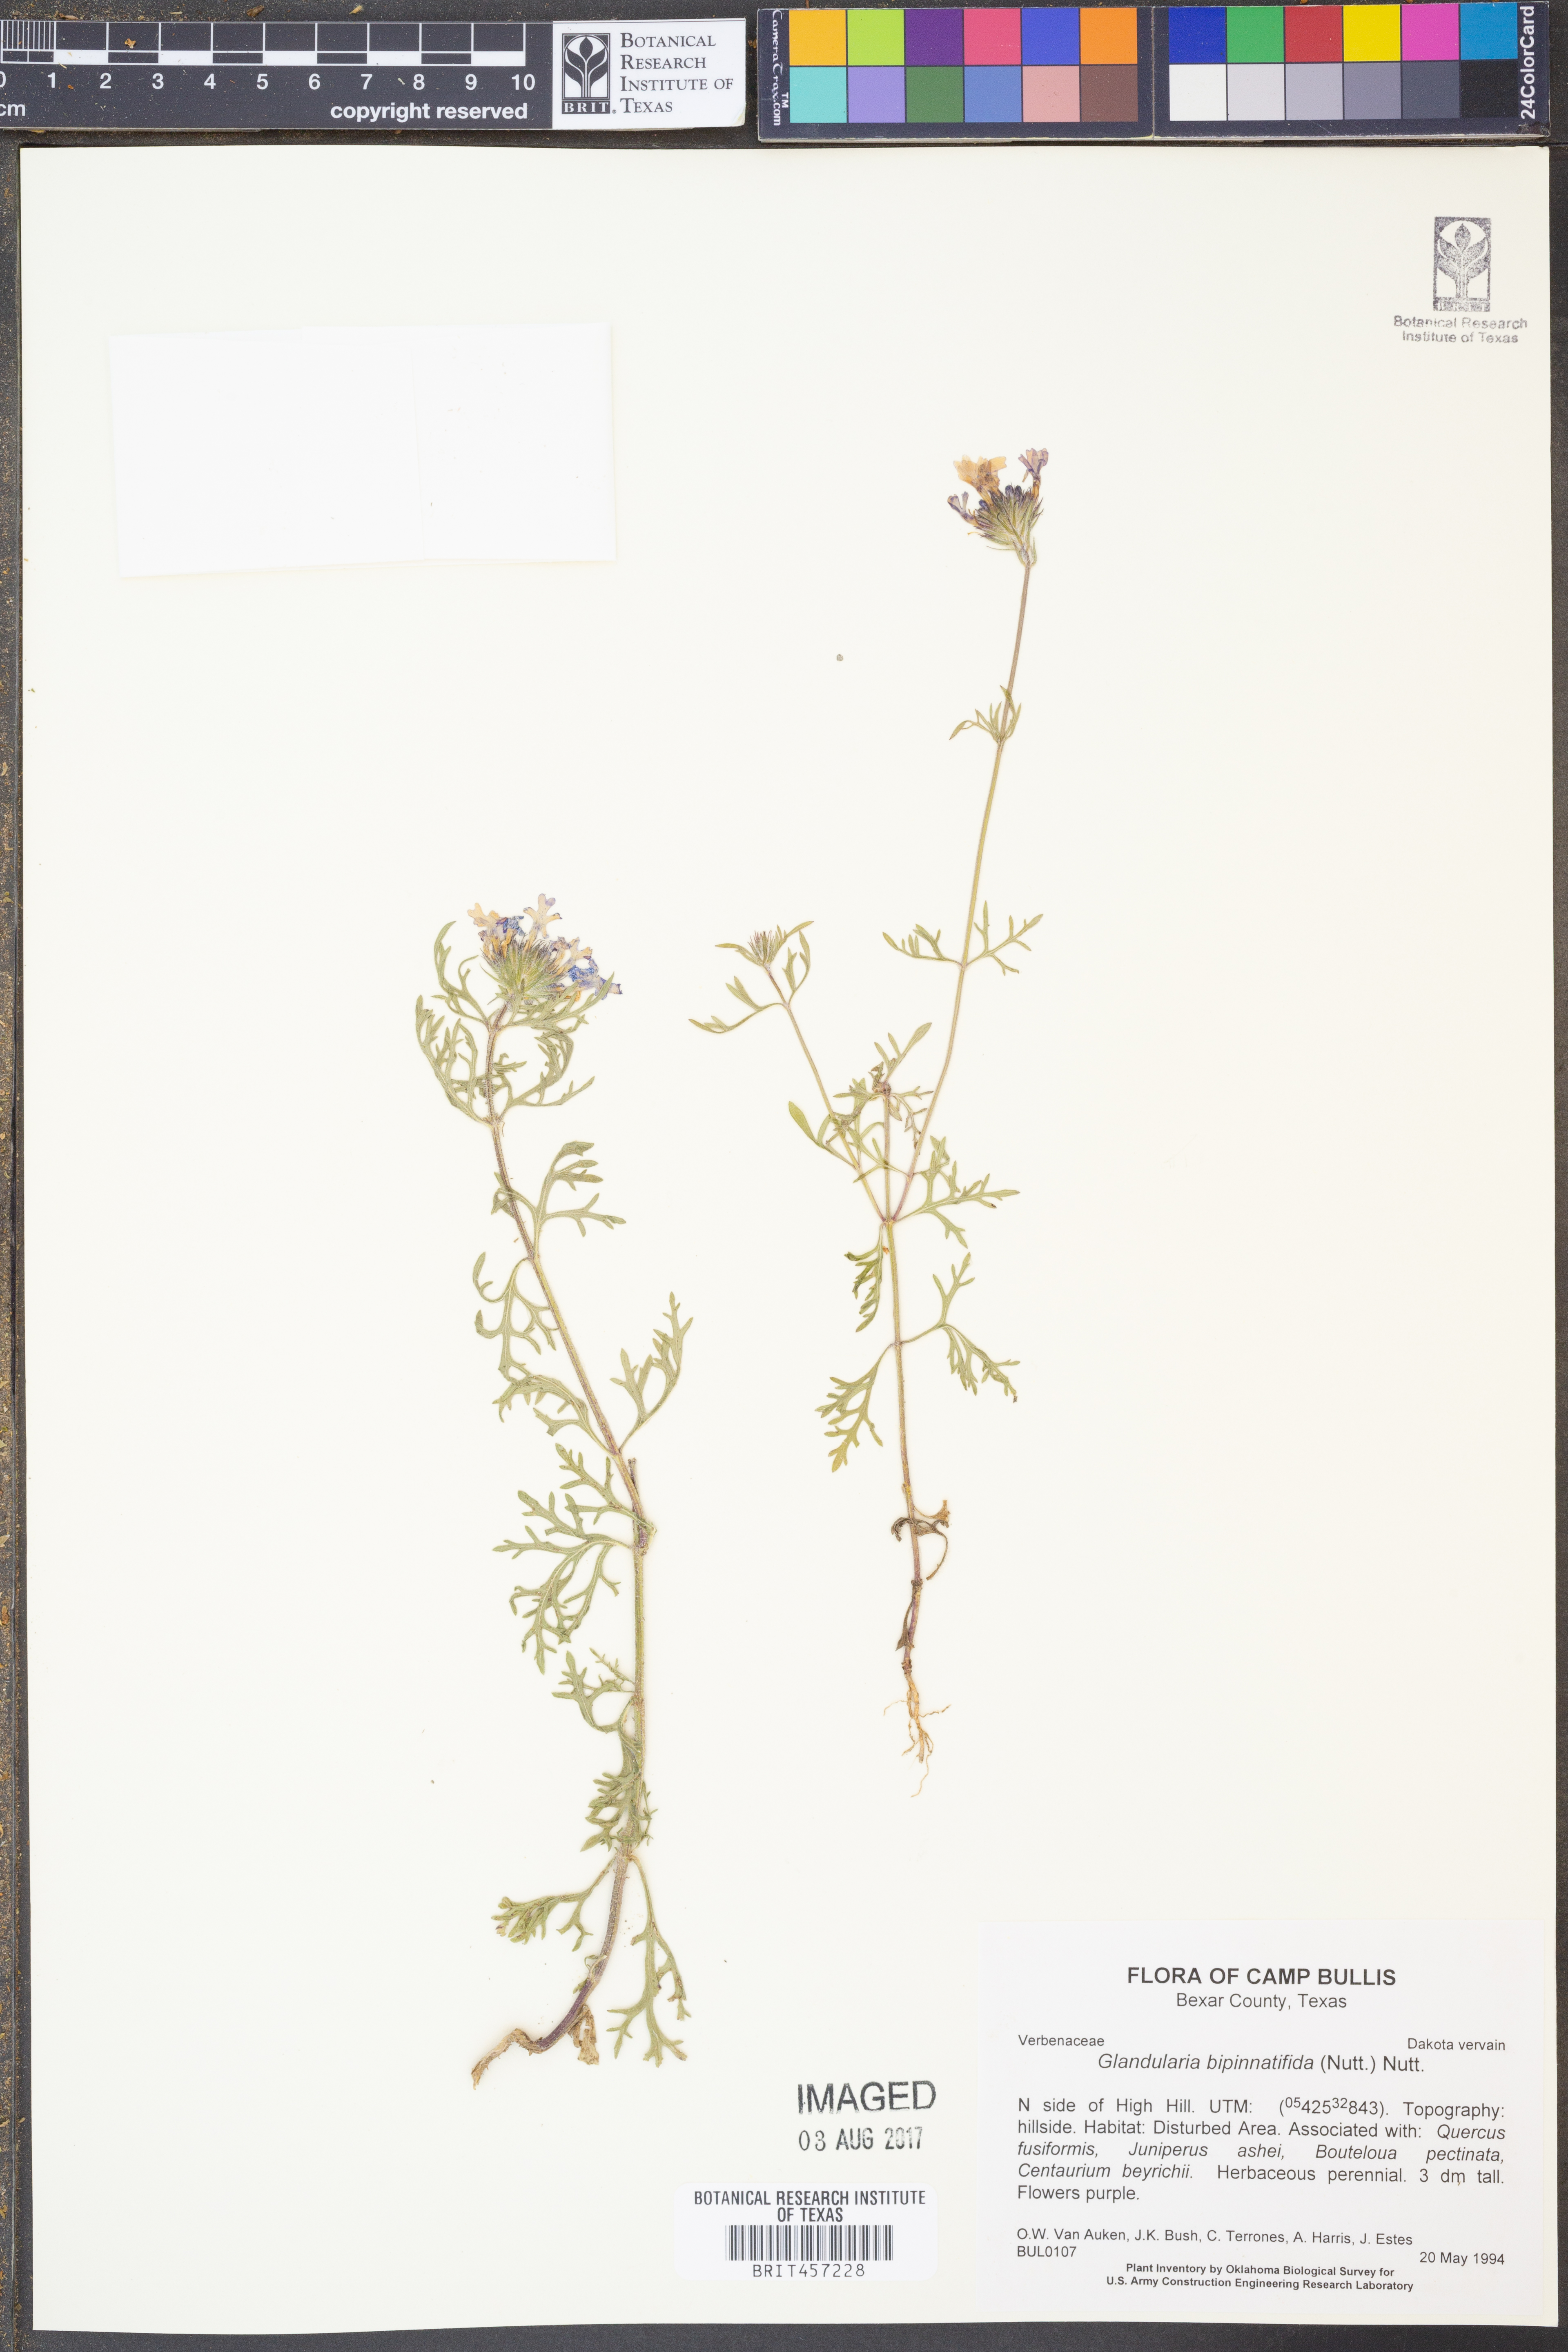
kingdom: Plantae
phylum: Tracheophyta
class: Magnoliopsida
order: Lamiales
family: Verbenaceae
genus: Verbena
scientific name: Verbena bipinnatifida
